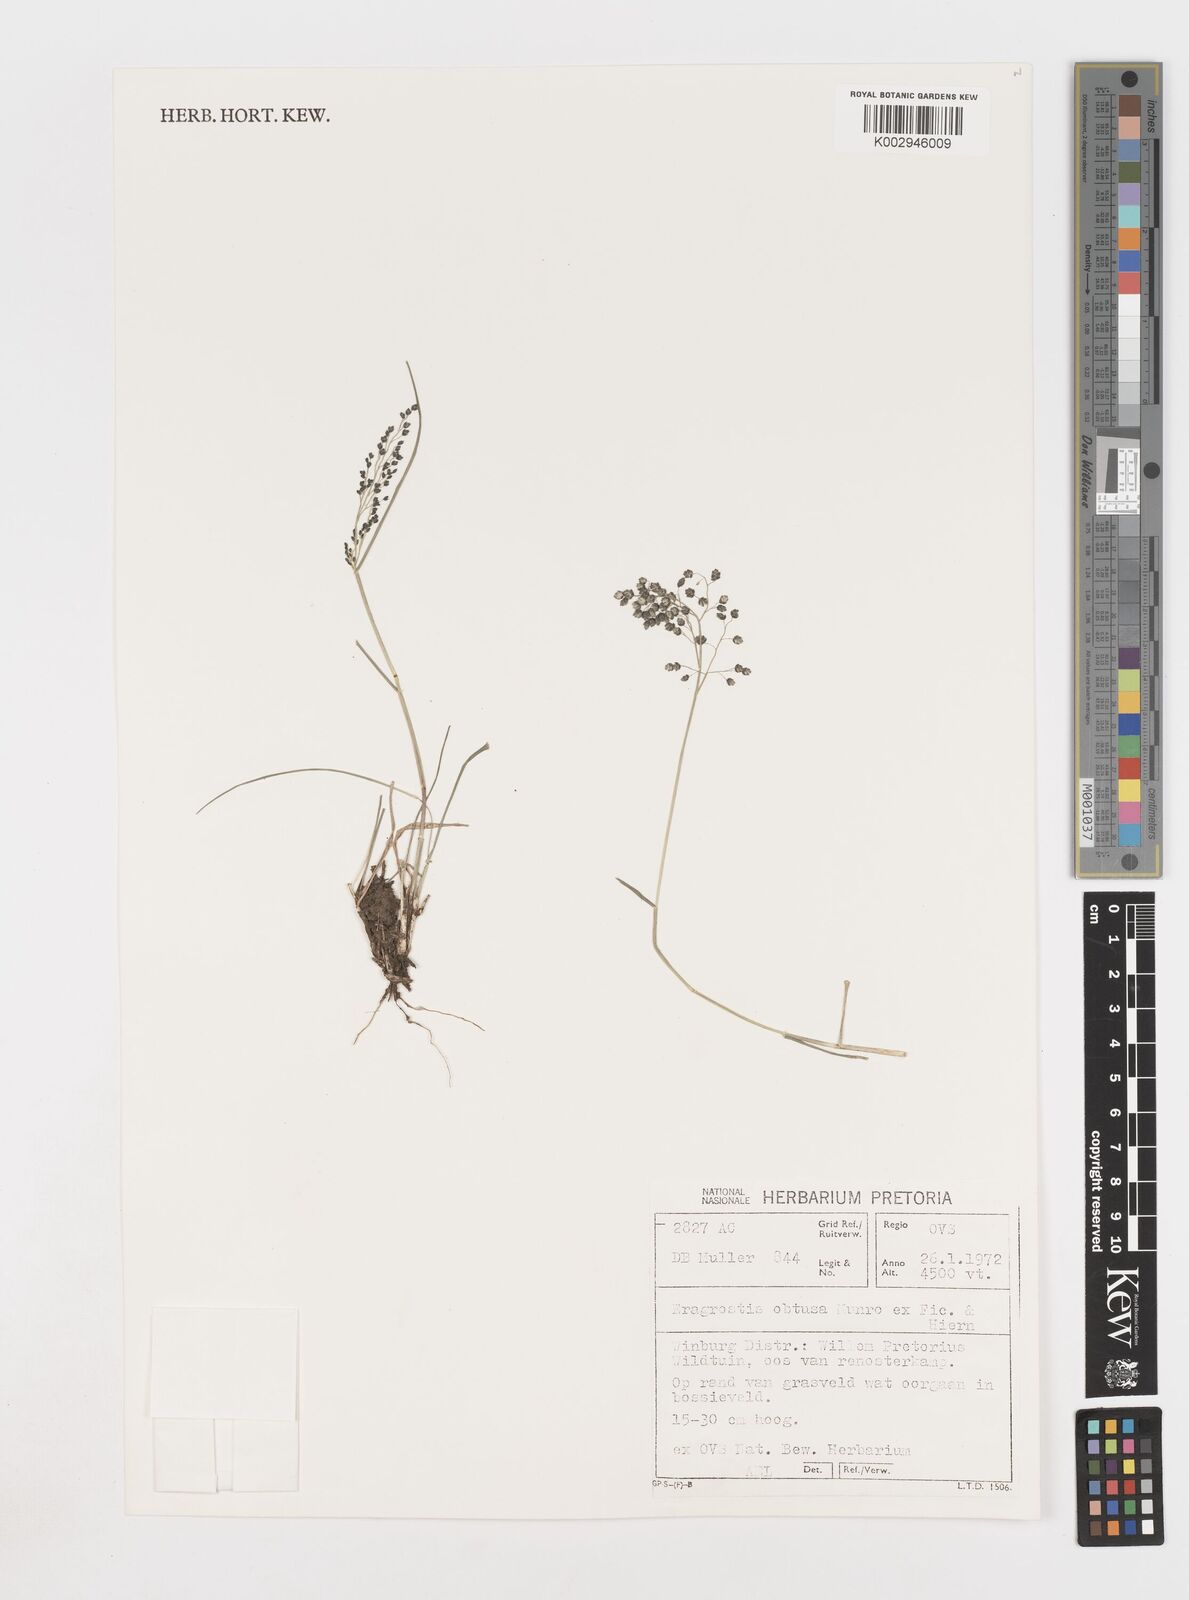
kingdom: Plantae
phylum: Tracheophyta
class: Liliopsida
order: Poales
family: Poaceae
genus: Eragrostis
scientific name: Eragrostis obtusa
